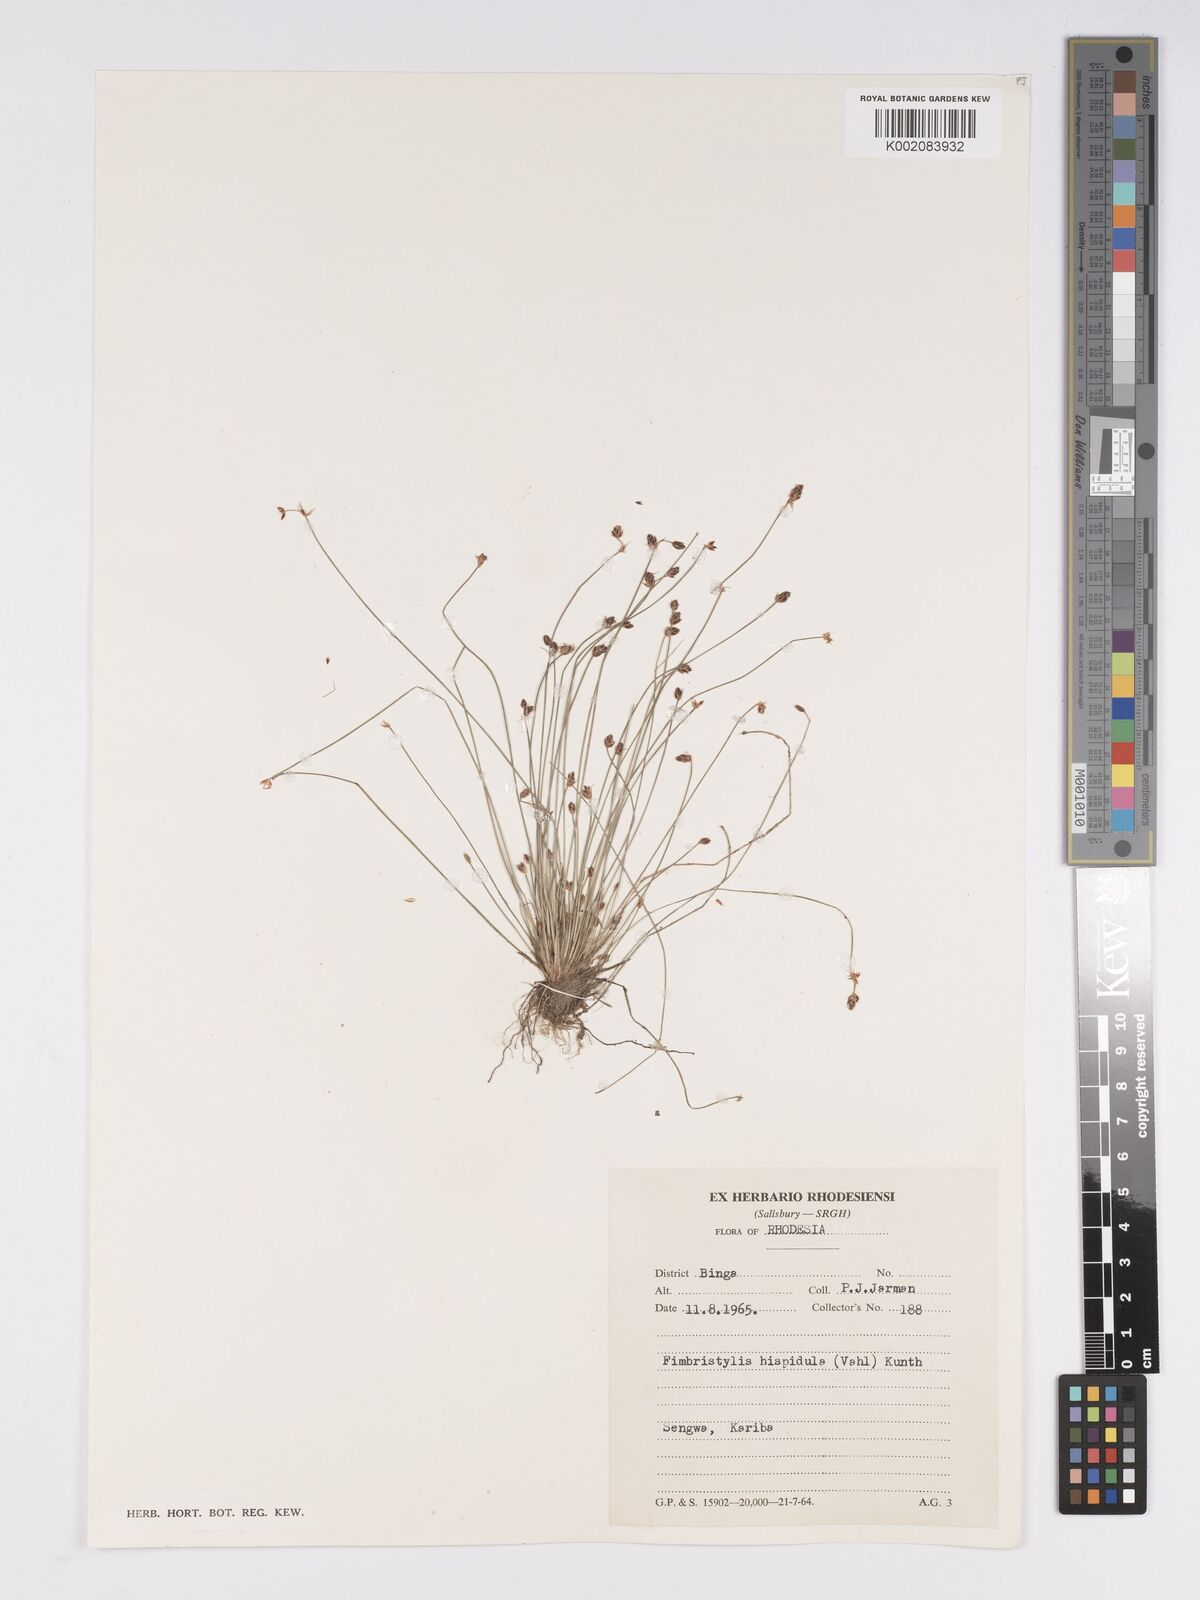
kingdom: Plantae
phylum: Tracheophyta
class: Liliopsida
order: Poales
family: Cyperaceae
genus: Bulbostylis
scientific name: Bulbostylis hispidula
